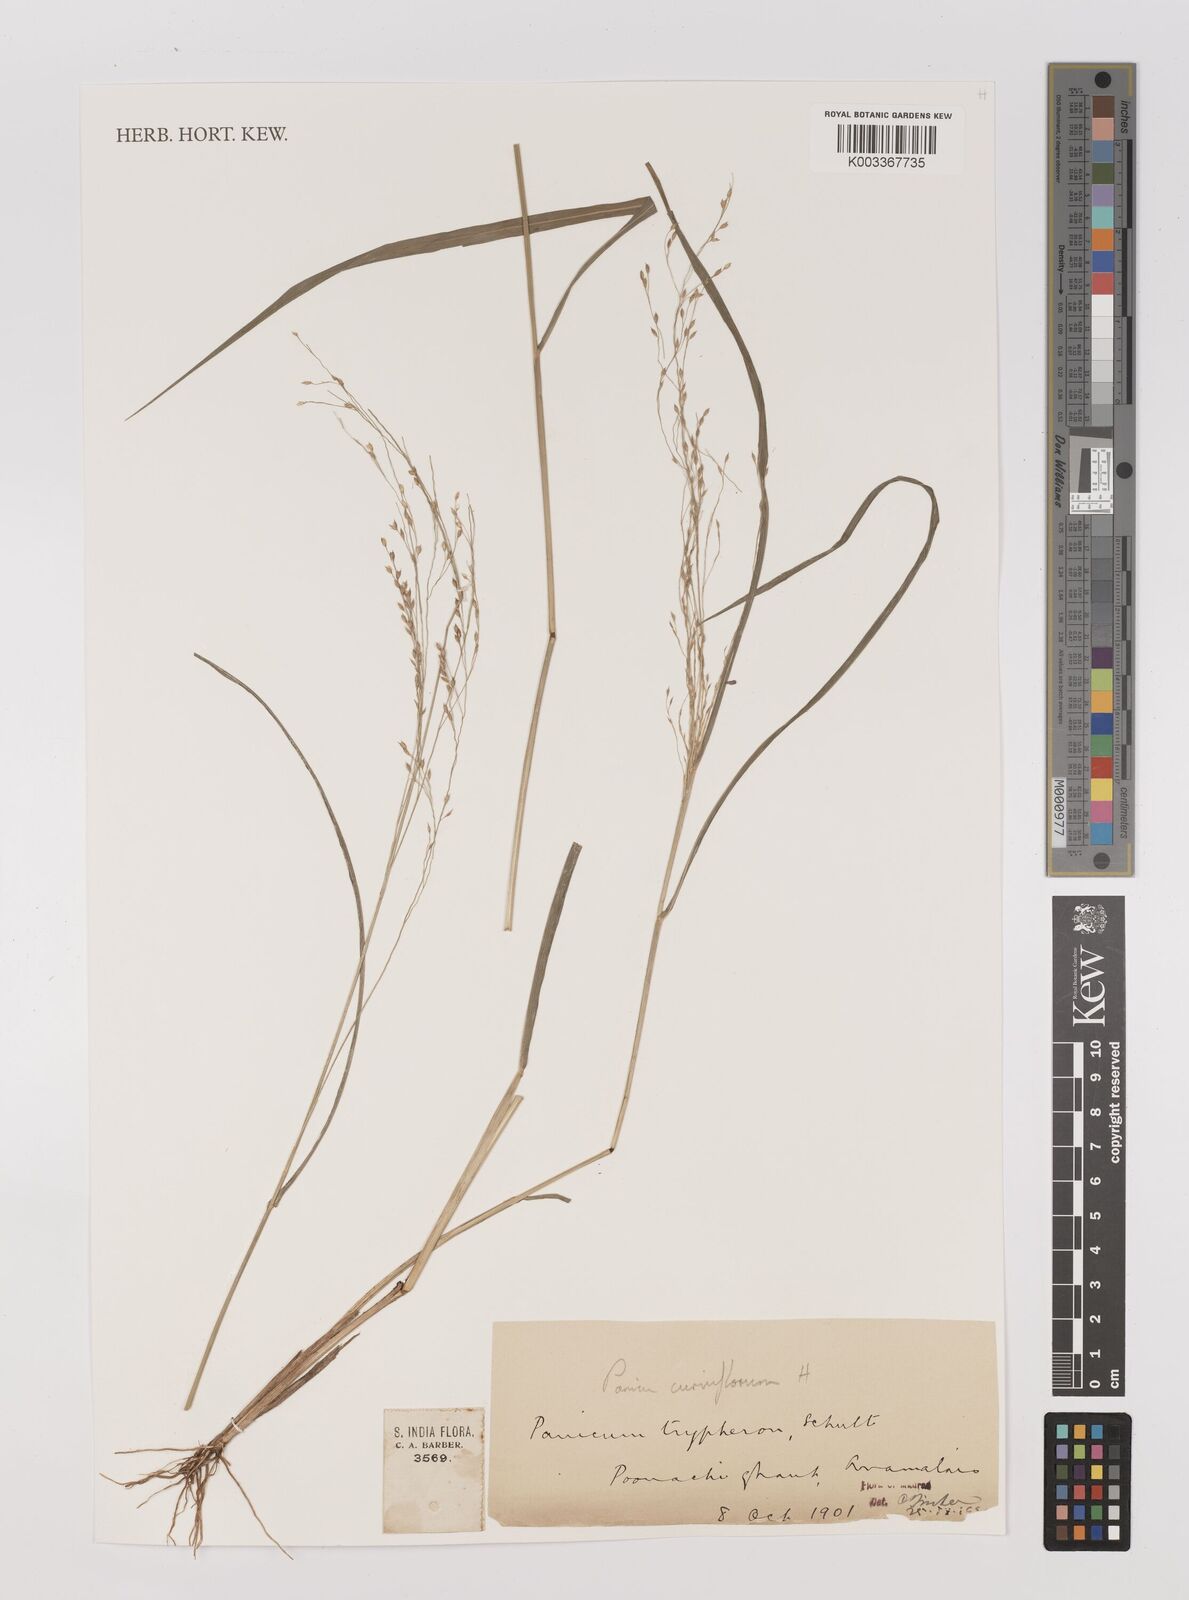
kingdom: Plantae
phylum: Tracheophyta
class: Liliopsida
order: Poales
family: Poaceae
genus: Panicum
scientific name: Panicum curviflorum
